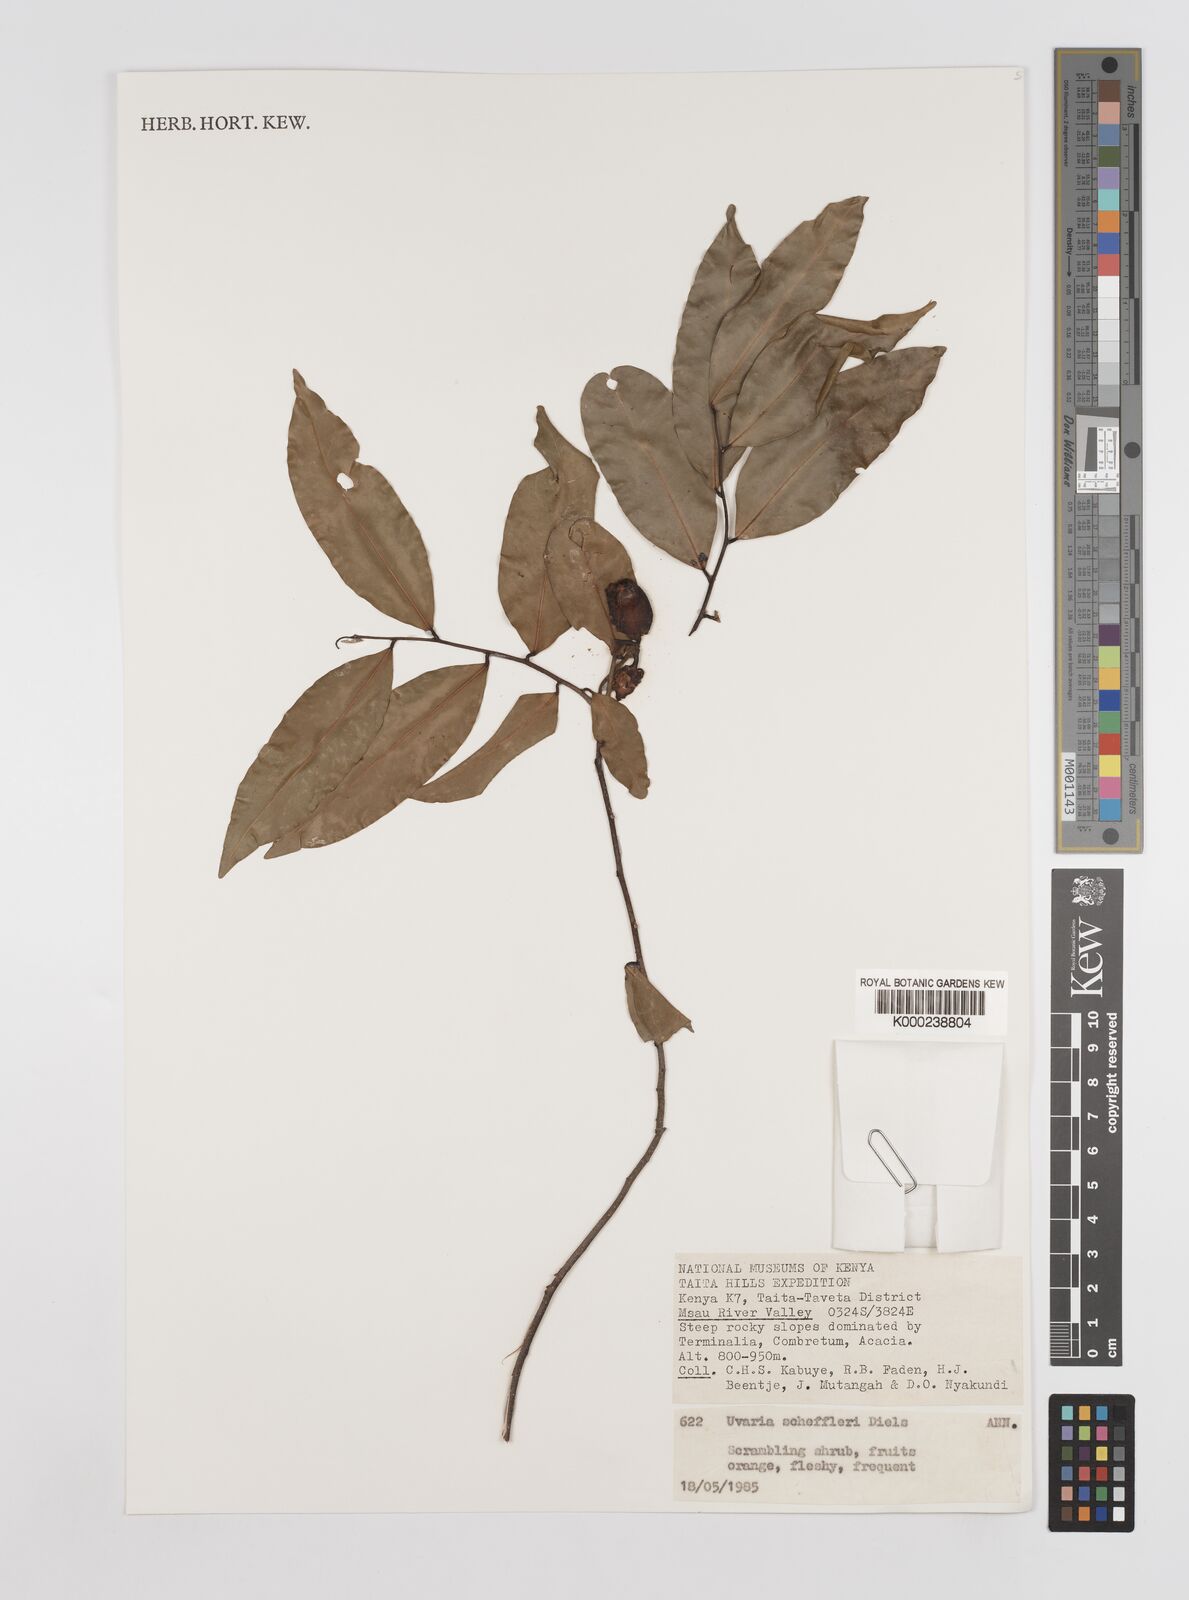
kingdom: Plantae
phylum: Tracheophyta
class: Magnoliopsida
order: Magnoliales
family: Annonaceae
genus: Uvaria
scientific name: Uvaria scheffleri
